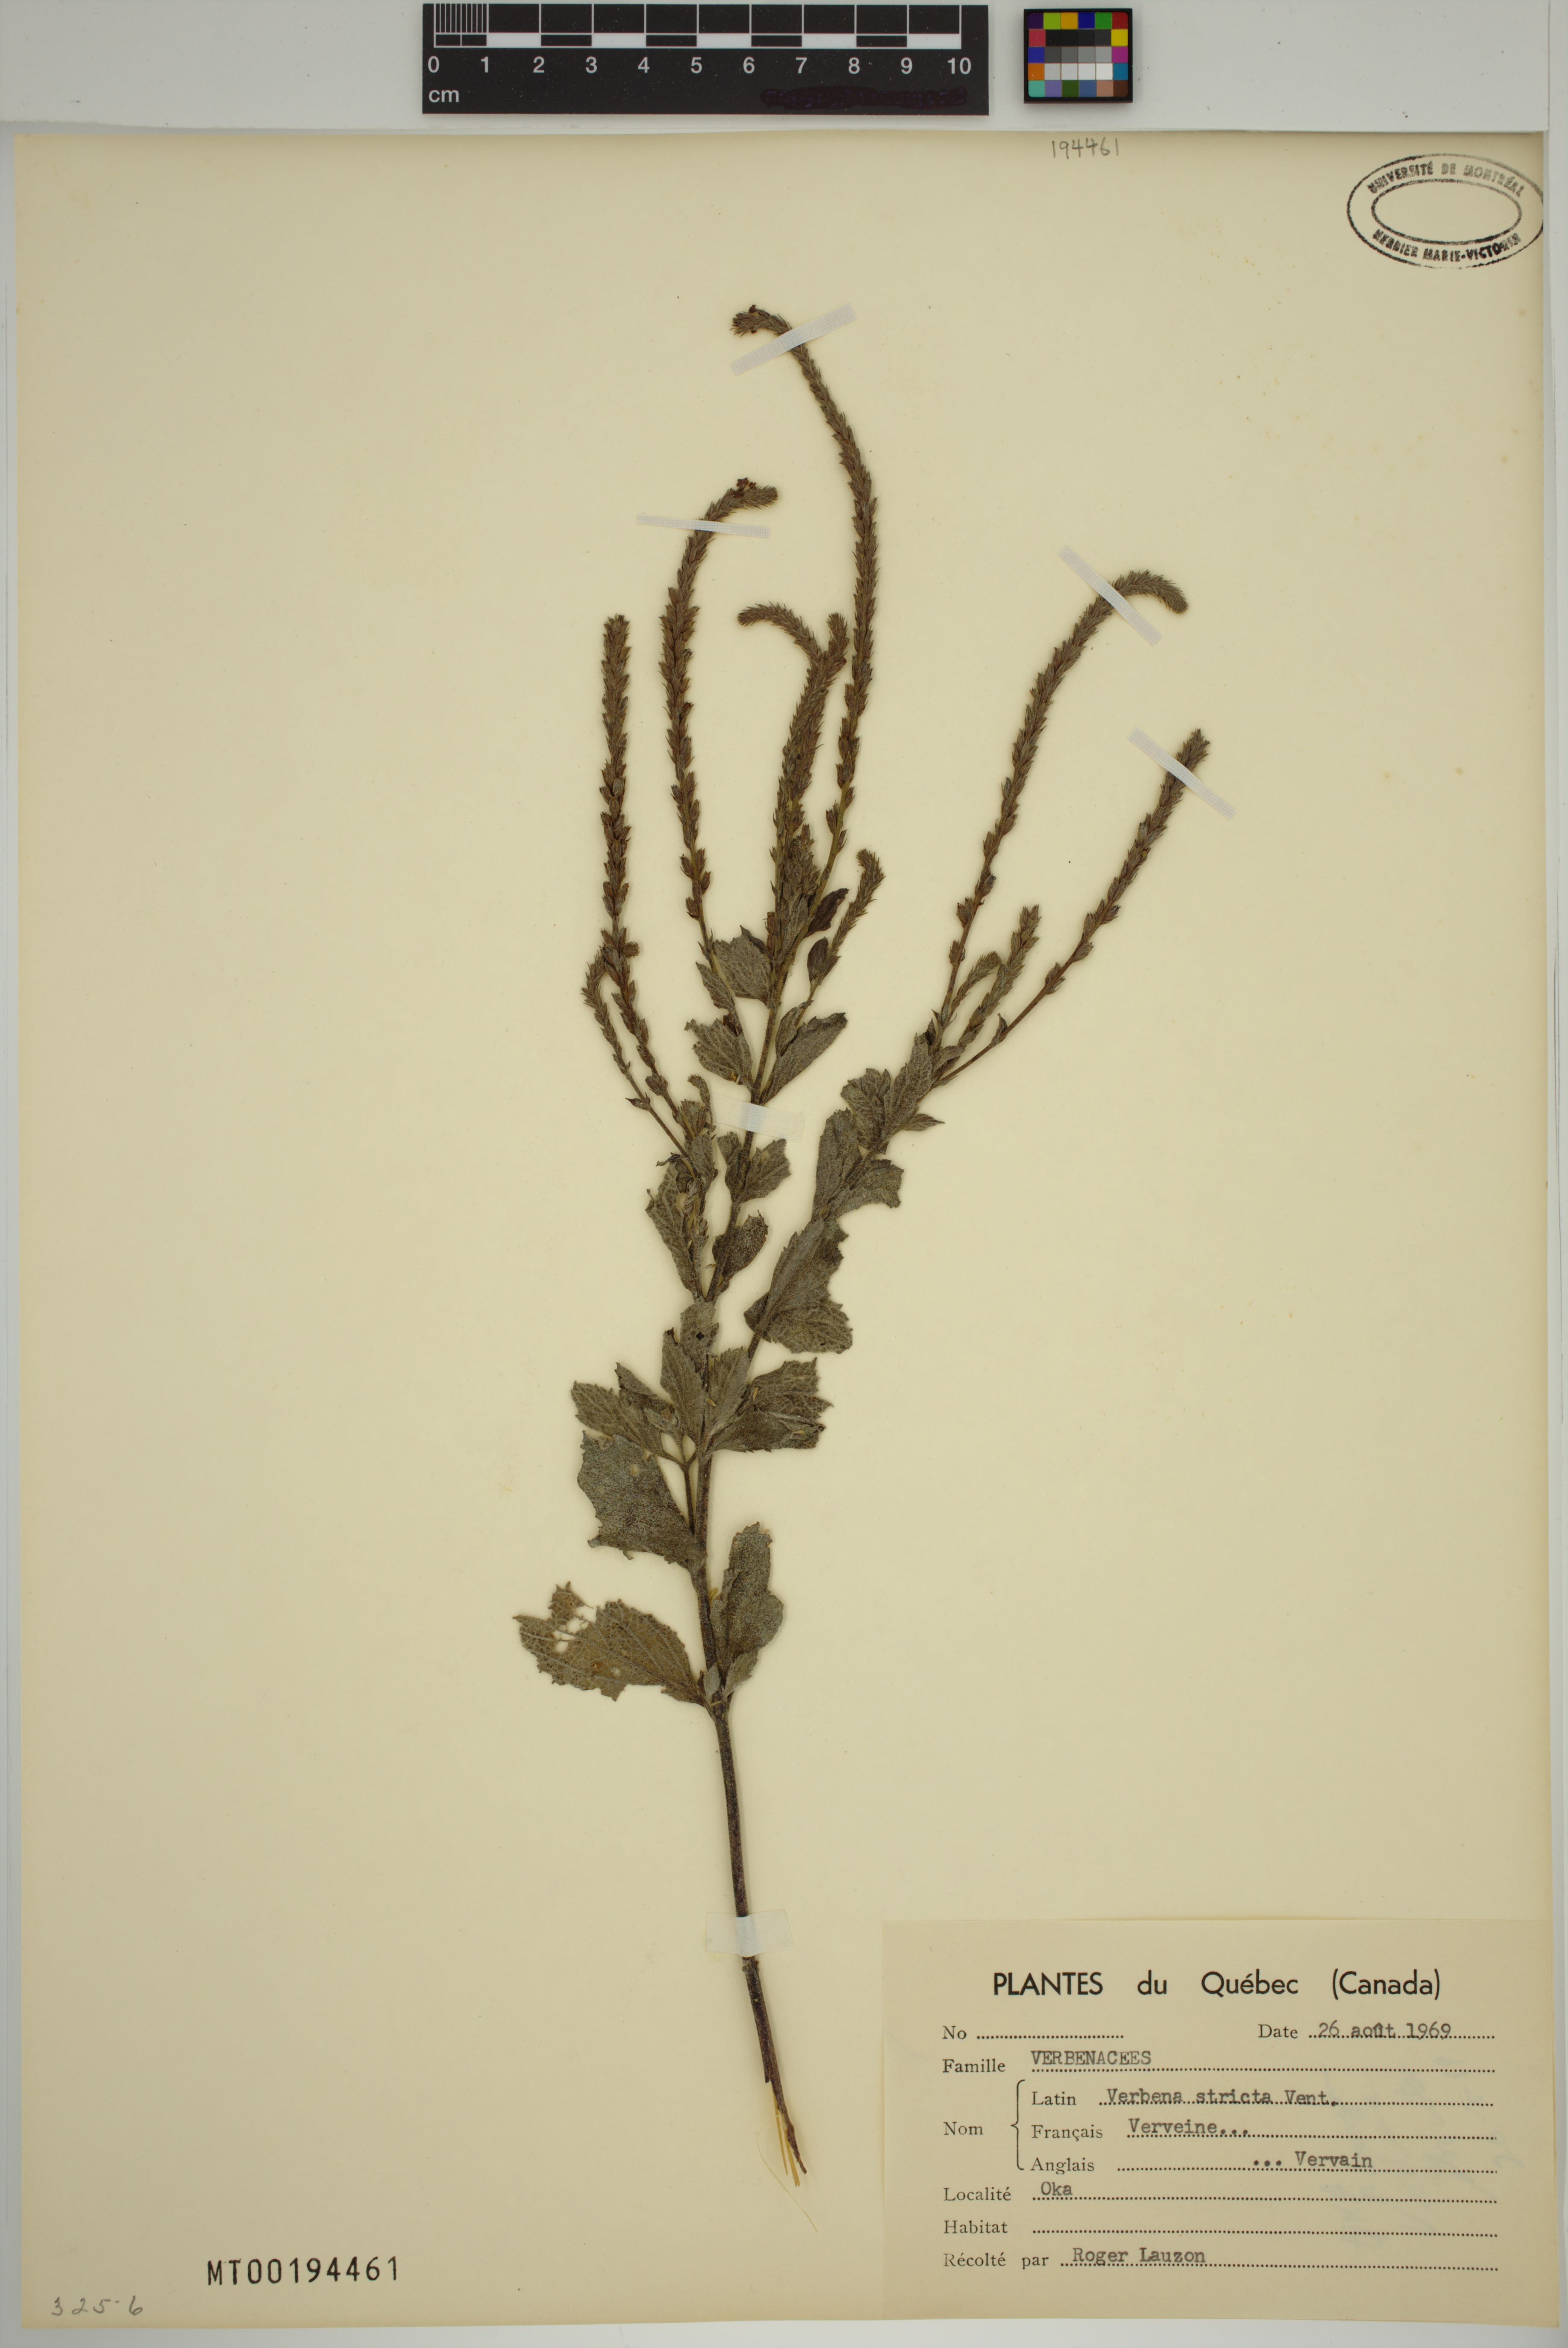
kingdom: Plantae
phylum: Tracheophyta
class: Magnoliopsida
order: Lamiales
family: Verbenaceae
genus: Verbena
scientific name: Verbena stricta
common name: Hoary vervain
